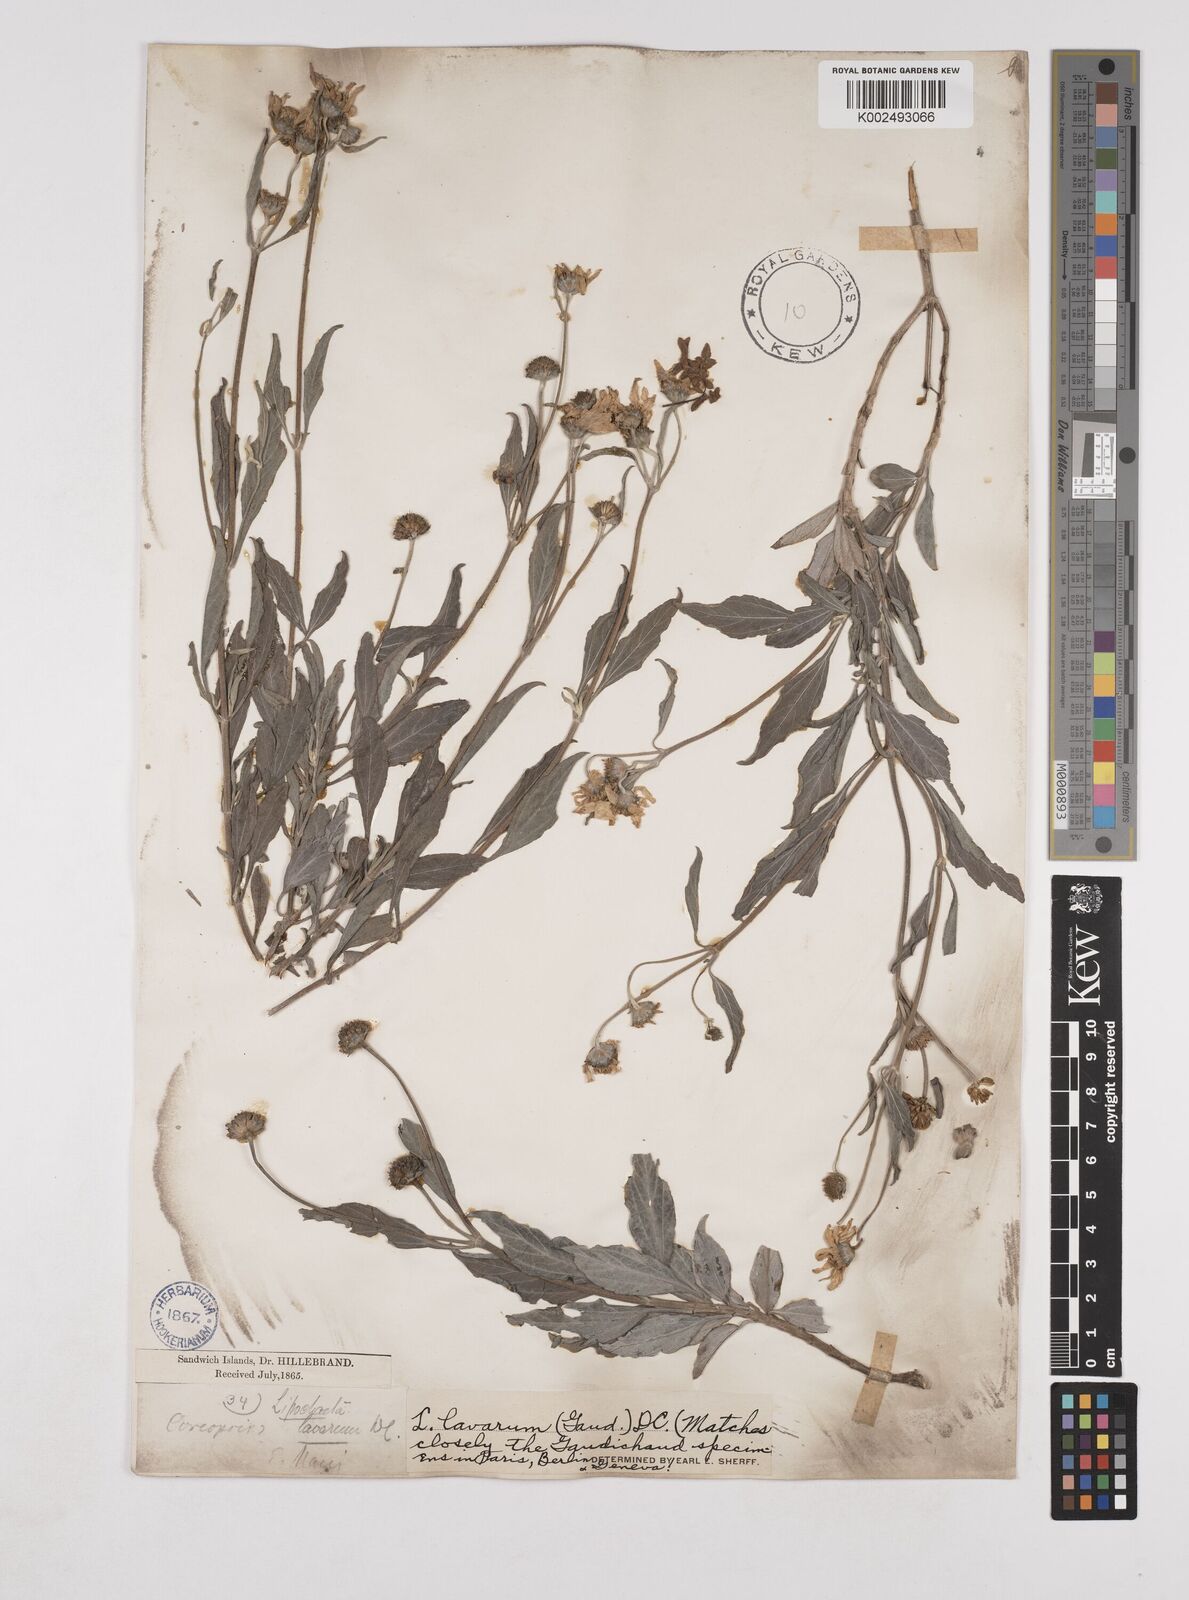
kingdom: Plantae
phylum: Tracheophyta
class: Magnoliopsida
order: Asterales
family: Asteraceae
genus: Lipochaeta
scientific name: Lipochaeta lavarum
